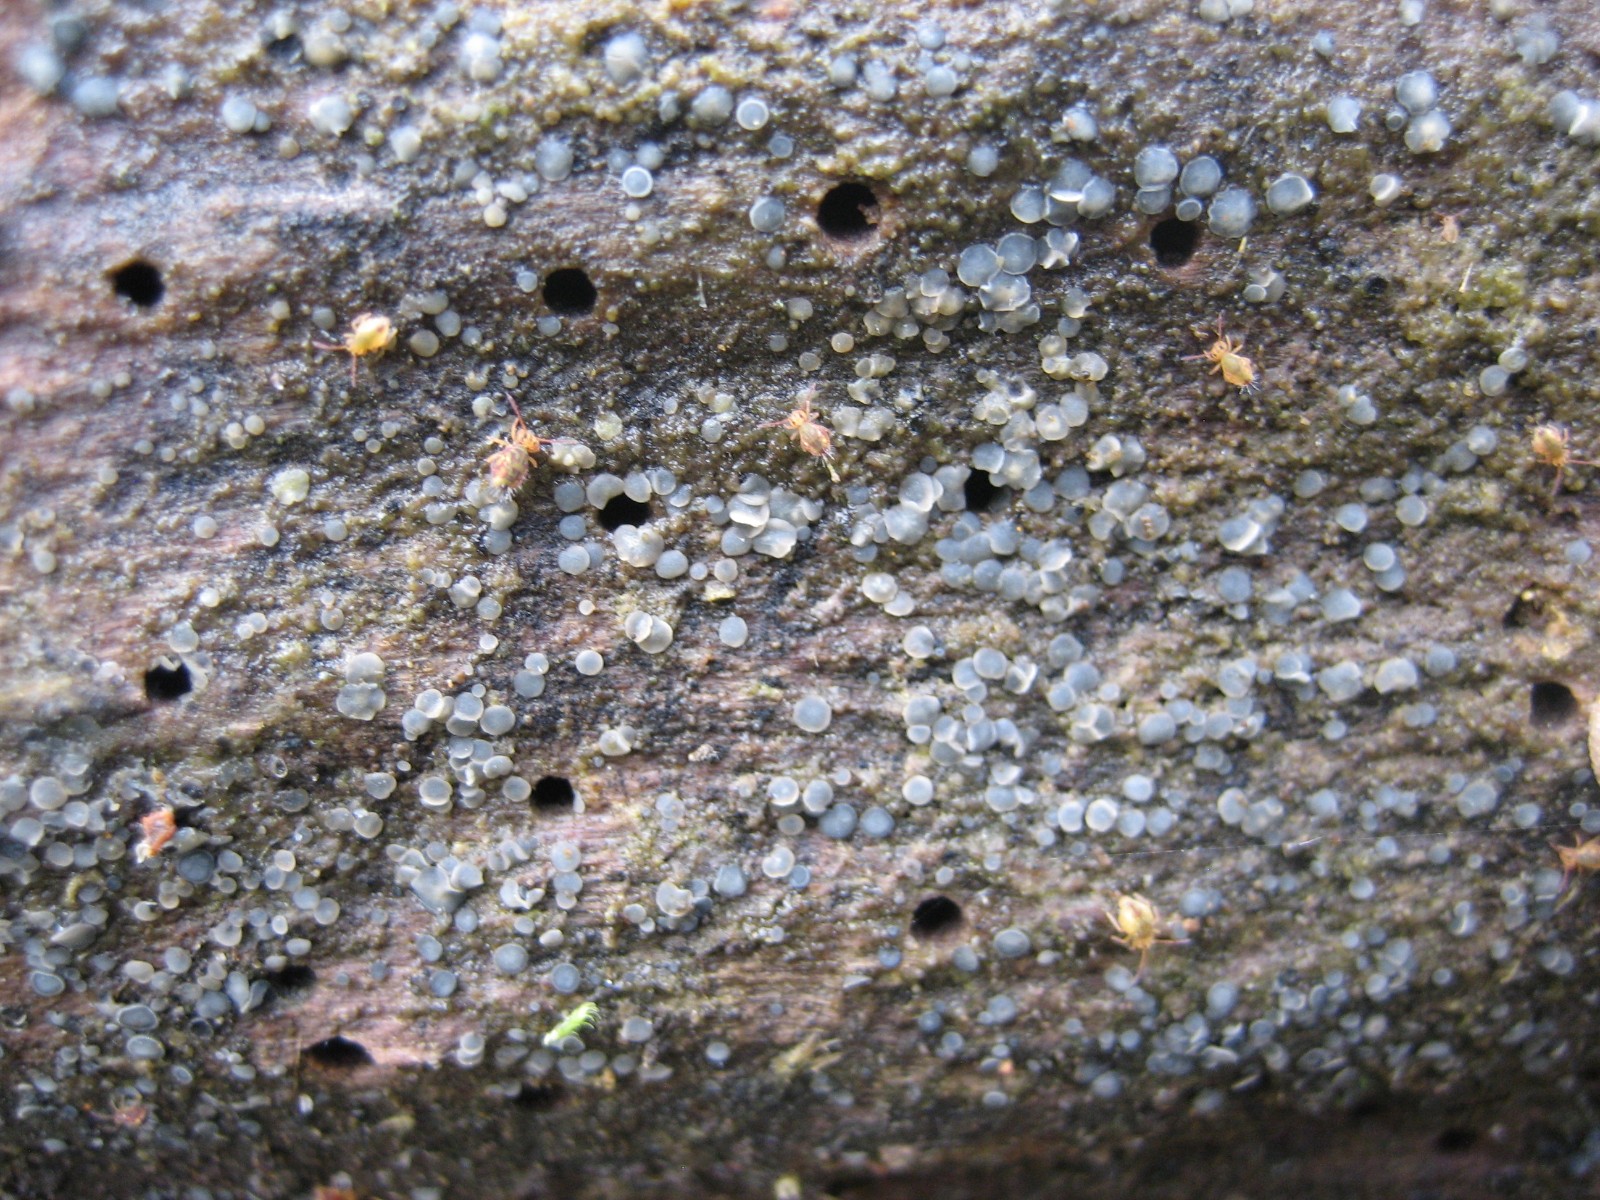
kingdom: Fungi
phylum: Ascomycota
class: Leotiomycetes
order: Helotiales
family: Mollisiaceae
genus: Mollisia
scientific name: Mollisia
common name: gråskive
